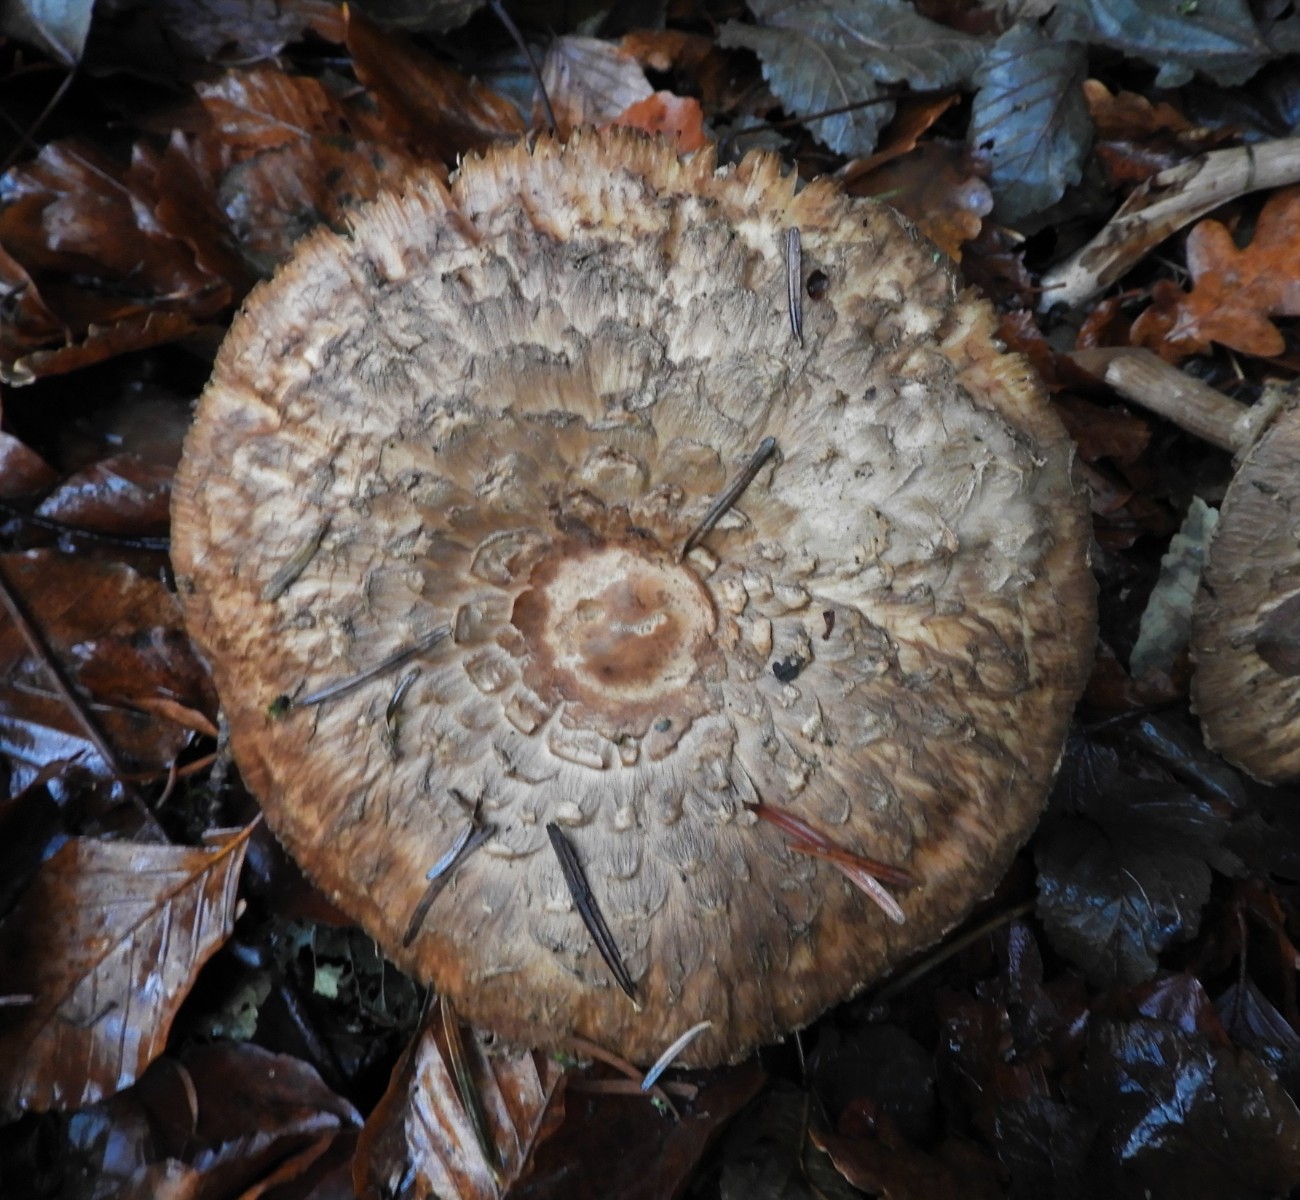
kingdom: Fungi
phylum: Basidiomycota
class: Agaricomycetes
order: Agaricales
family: Agaricaceae
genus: Chlorophyllum
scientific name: Chlorophyllum olivieri
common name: almindelig rabarberhat
